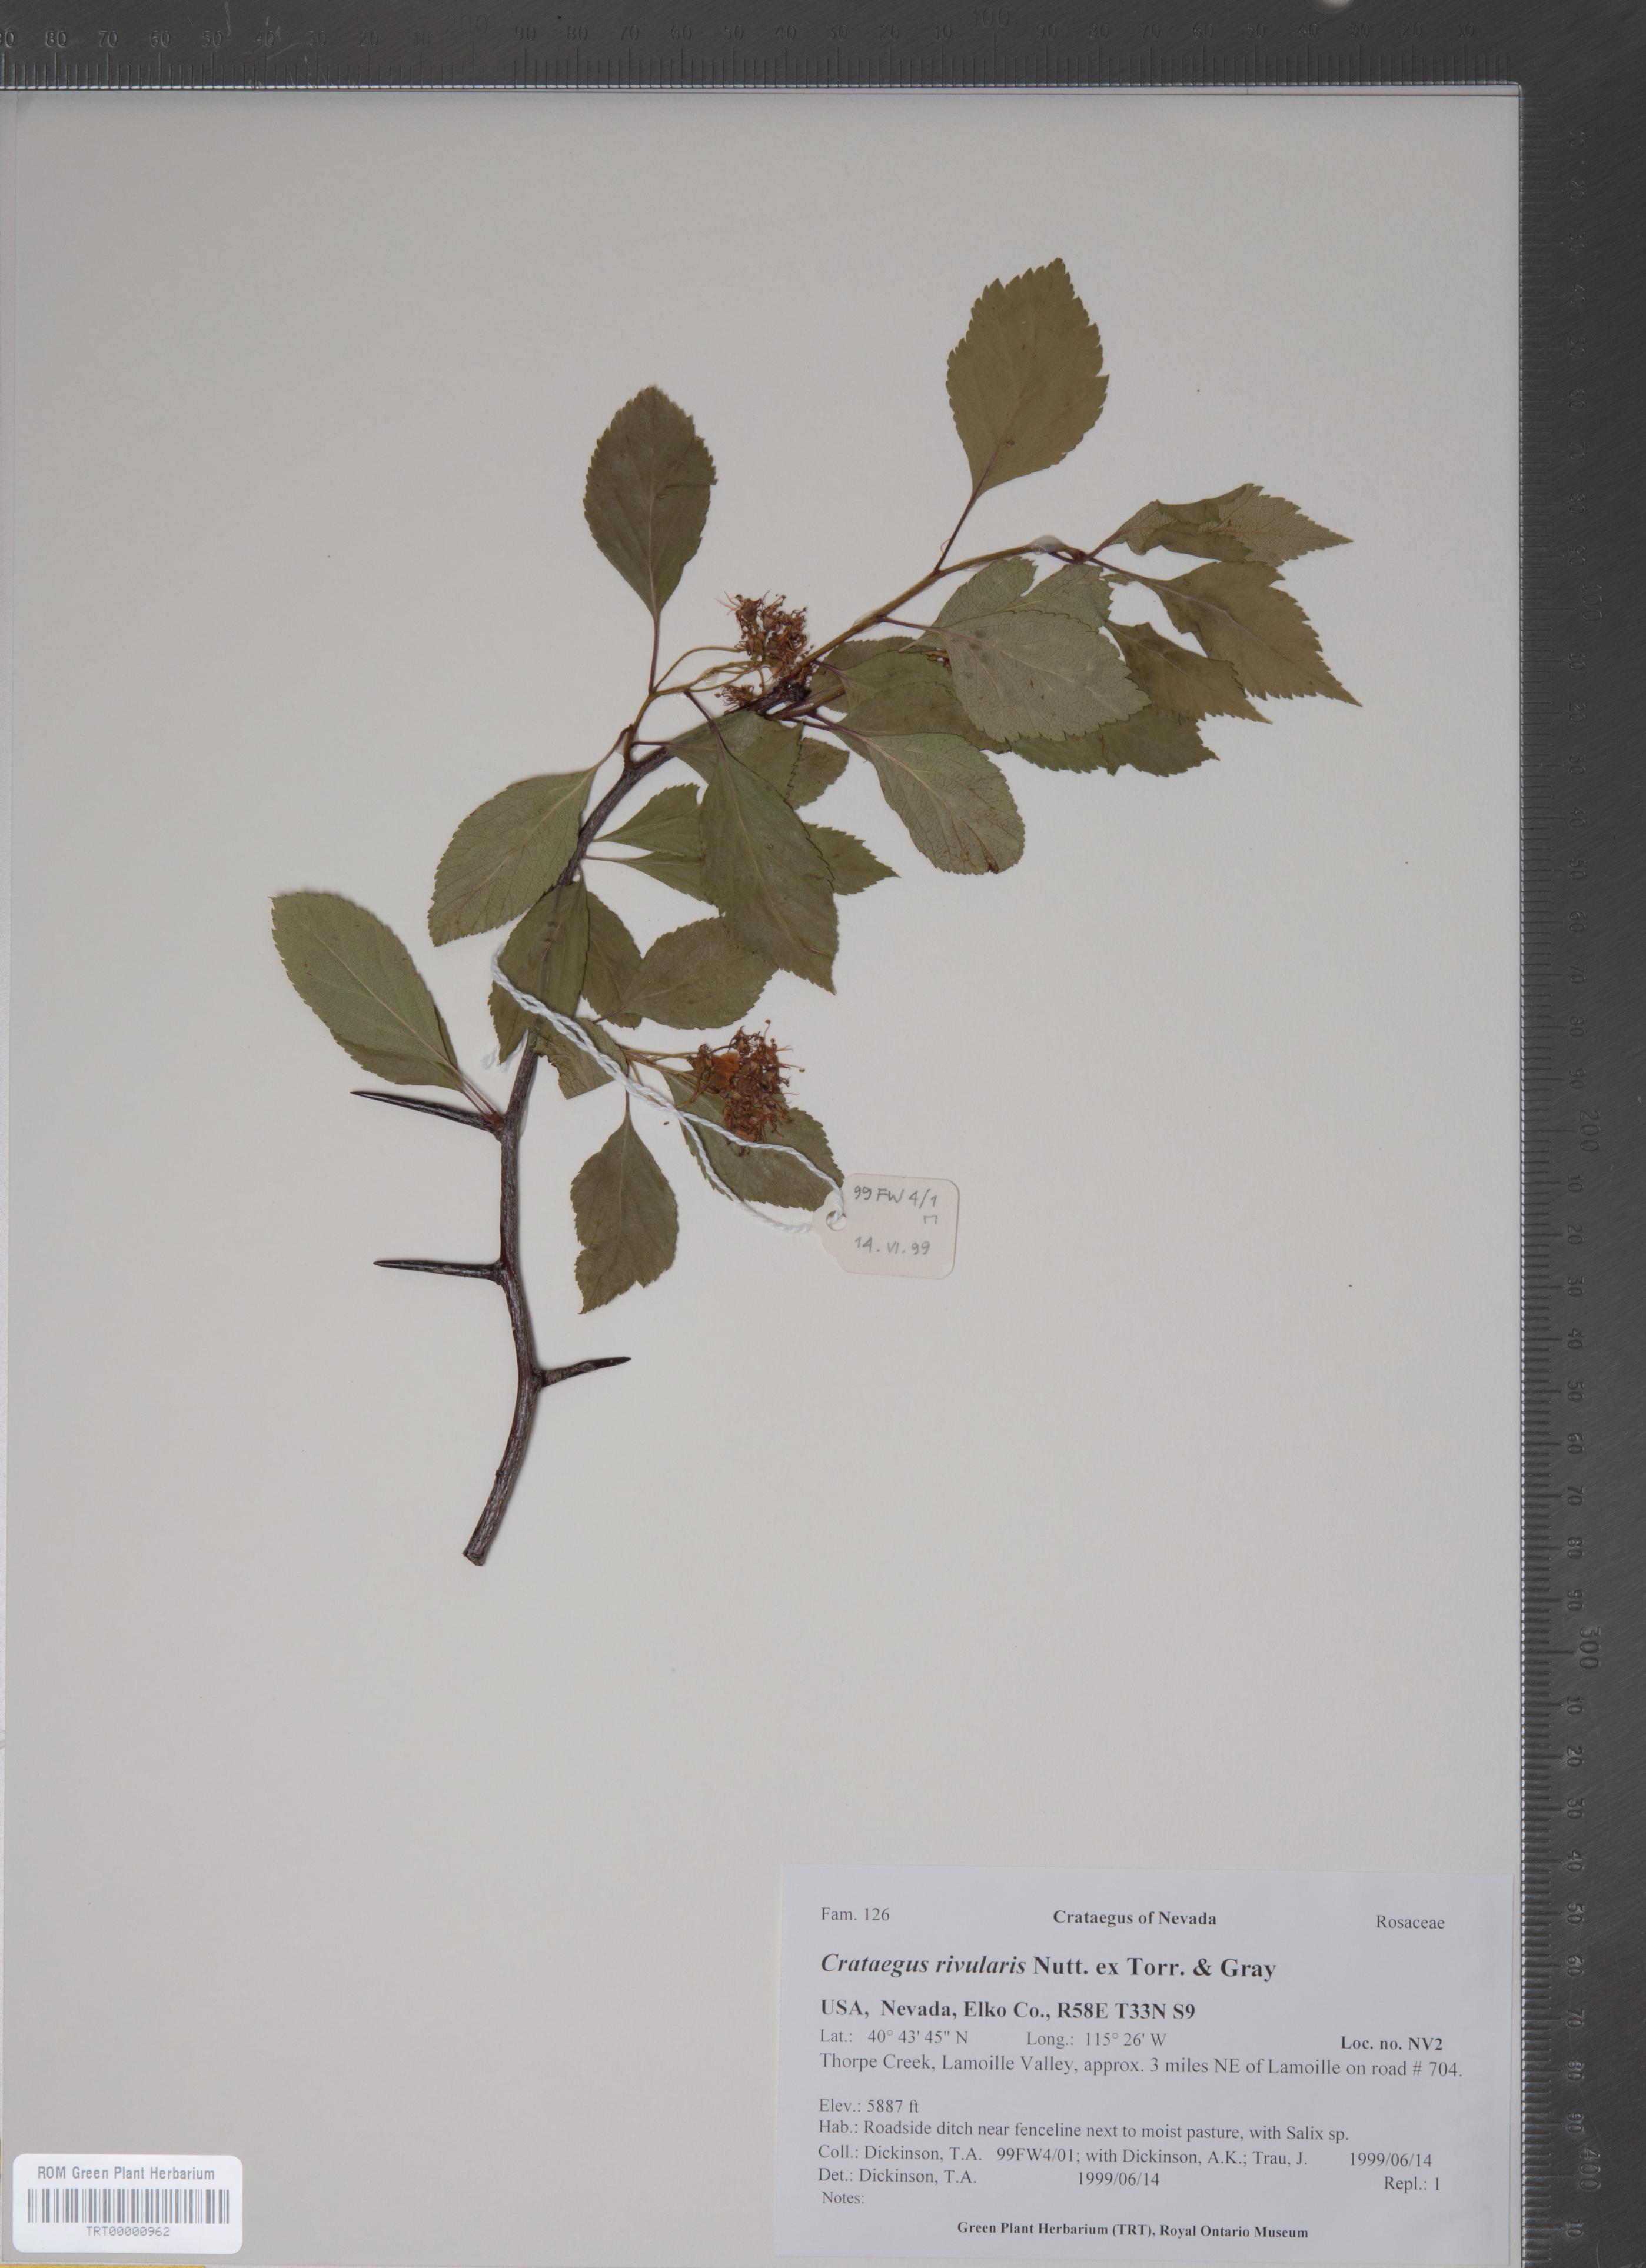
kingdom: Plantae
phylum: Tracheophyta
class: Magnoliopsida
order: Rosales
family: Rosaceae
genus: Crataegus
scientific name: Crataegus rivularis
